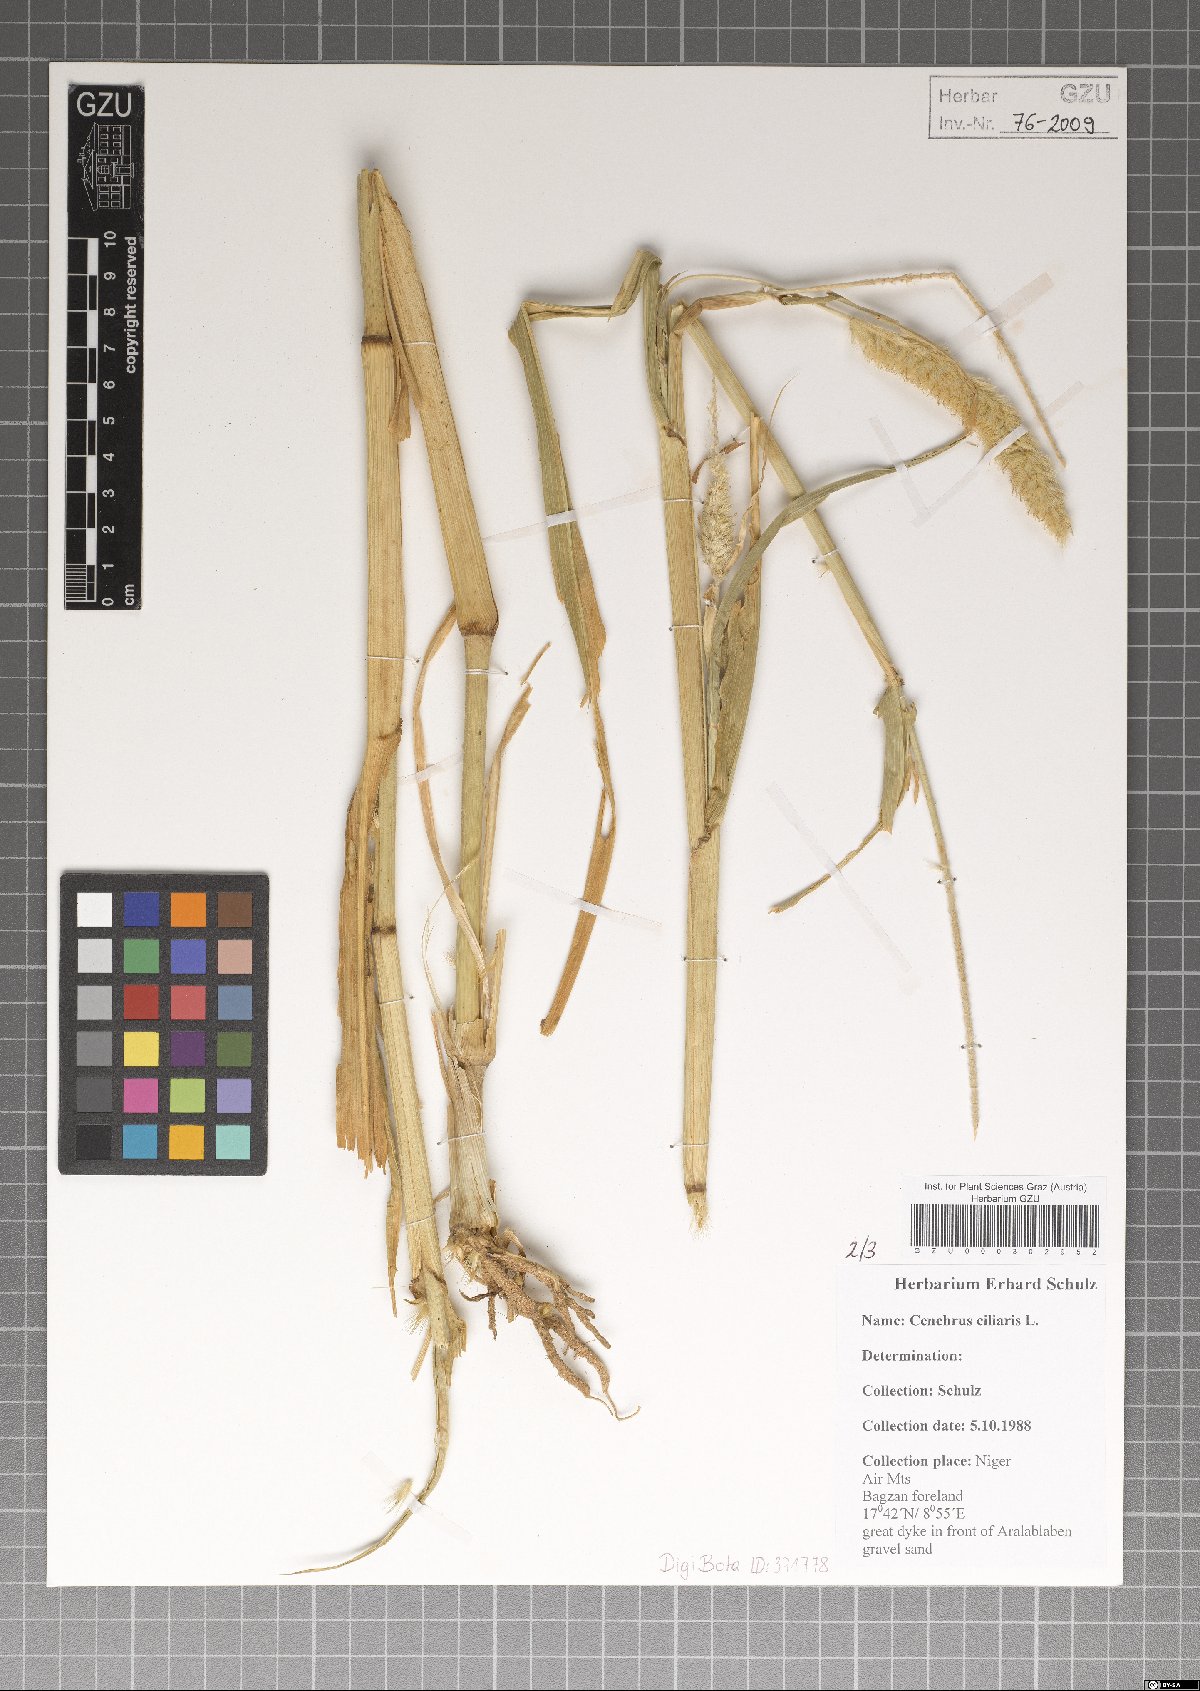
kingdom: Plantae
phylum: Tracheophyta
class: Liliopsida
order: Poales
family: Poaceae
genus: Cenchrus
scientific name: Cenchrus ciliaris
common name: Buffelgrass
